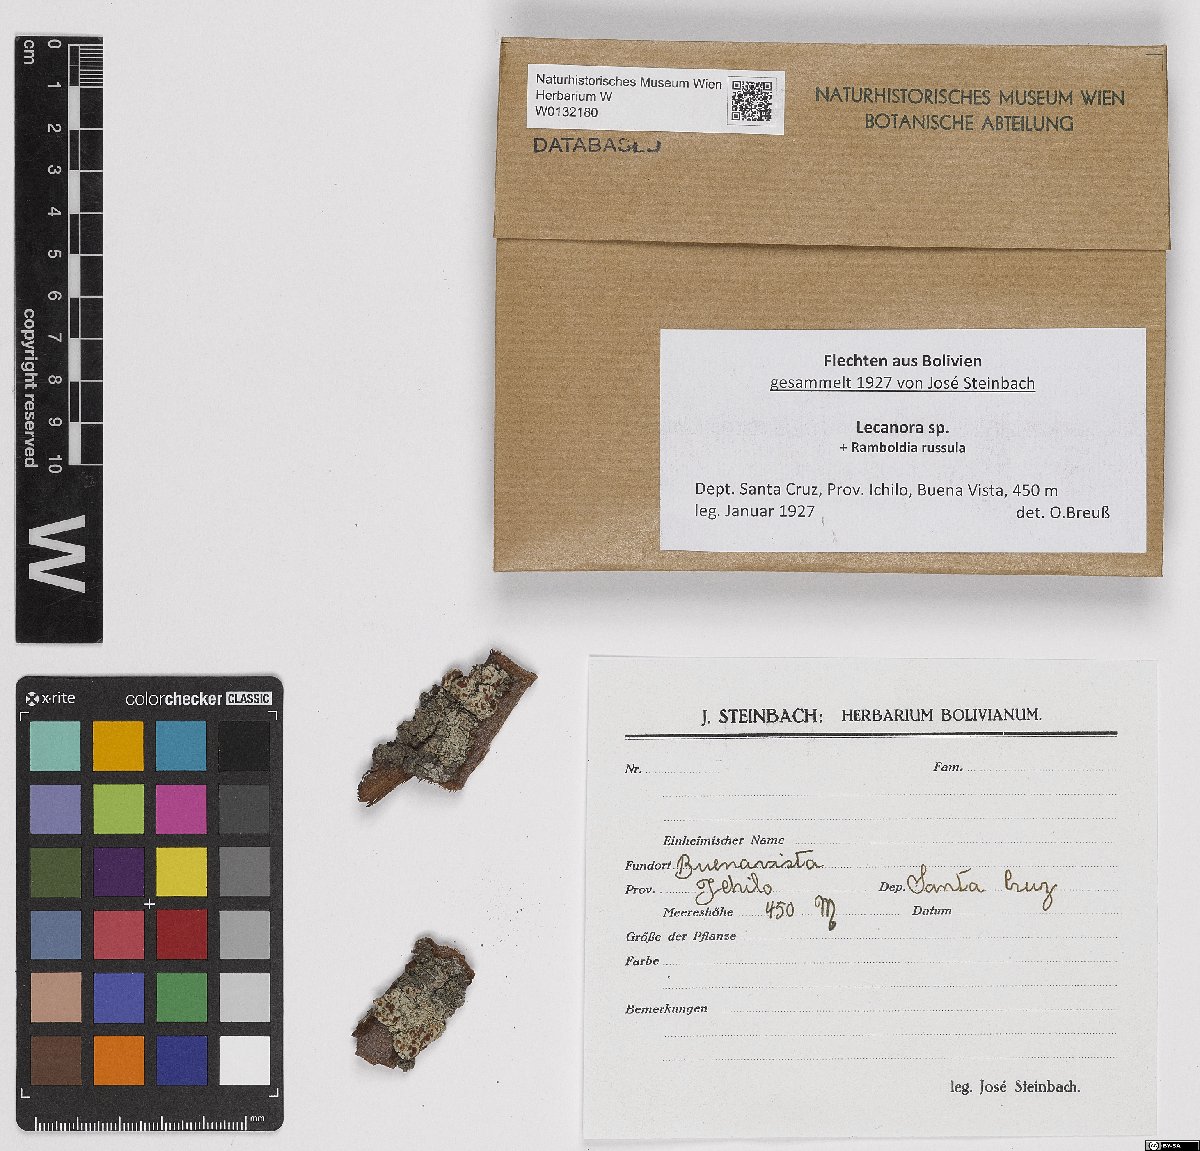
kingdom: Fungi
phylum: Ascomycota
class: Lecanoromycetes
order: Lecanorales
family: Lecanoraceae
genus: Lecanora
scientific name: Lecanora
